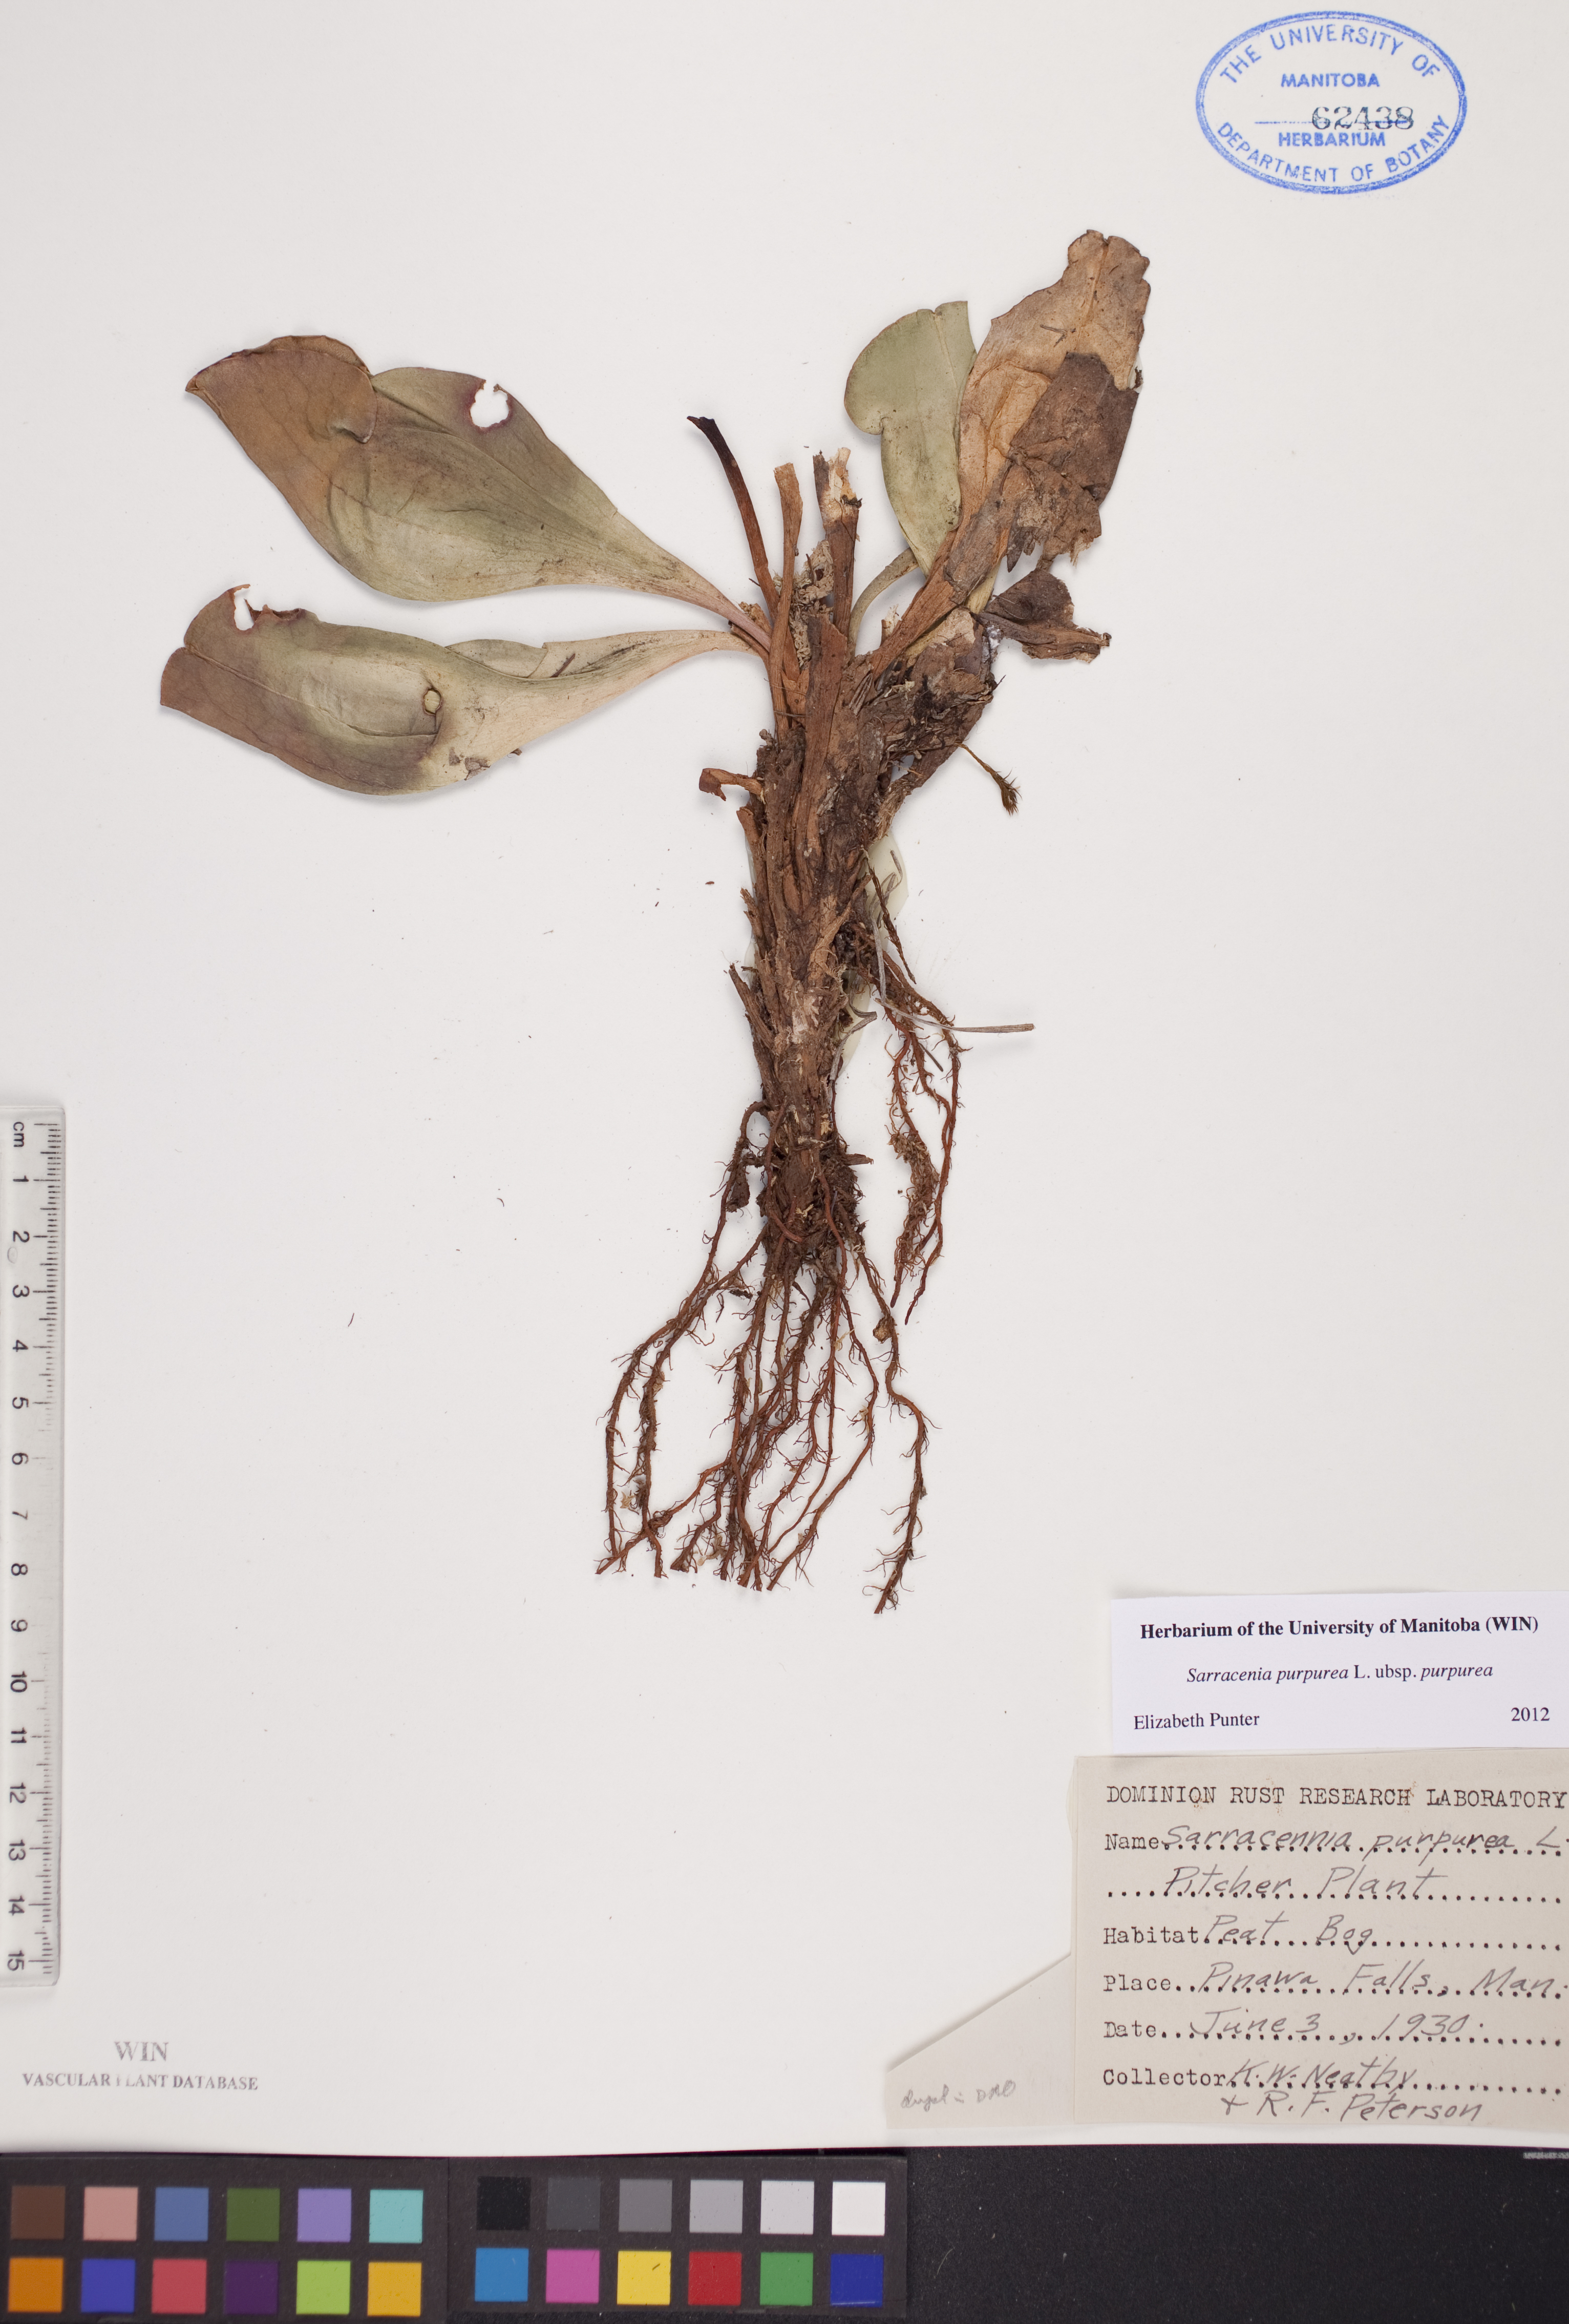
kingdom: Plantae
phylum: Tracheophyta
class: Magnoliopsida
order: Ericales
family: Sarraceniaceae
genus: Sarracenia
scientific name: Sarracenia purpurea
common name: Pitcherplant
